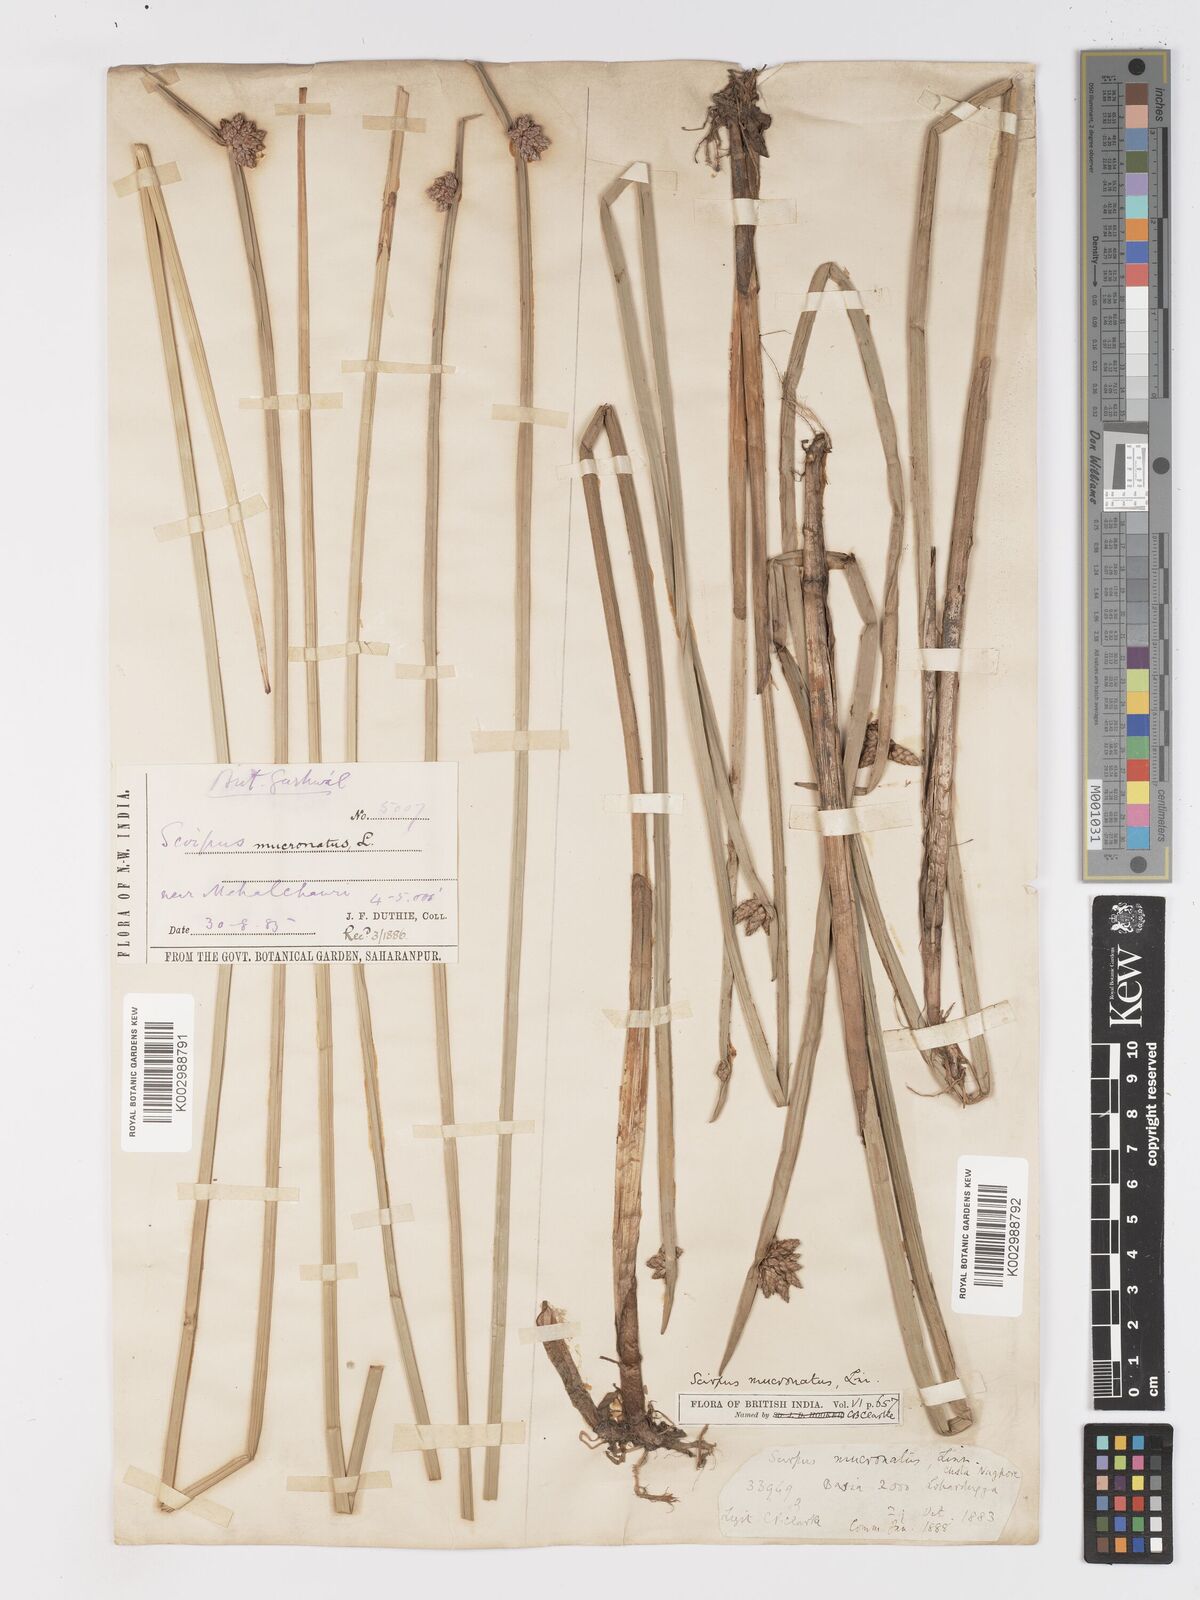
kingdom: Plantae
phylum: Tracheophyta
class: Liliopsida
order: Poales
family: Cyperaceae
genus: Schoenoplectiella
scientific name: Schoenoplectiella mucronata
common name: Bog bulrush
